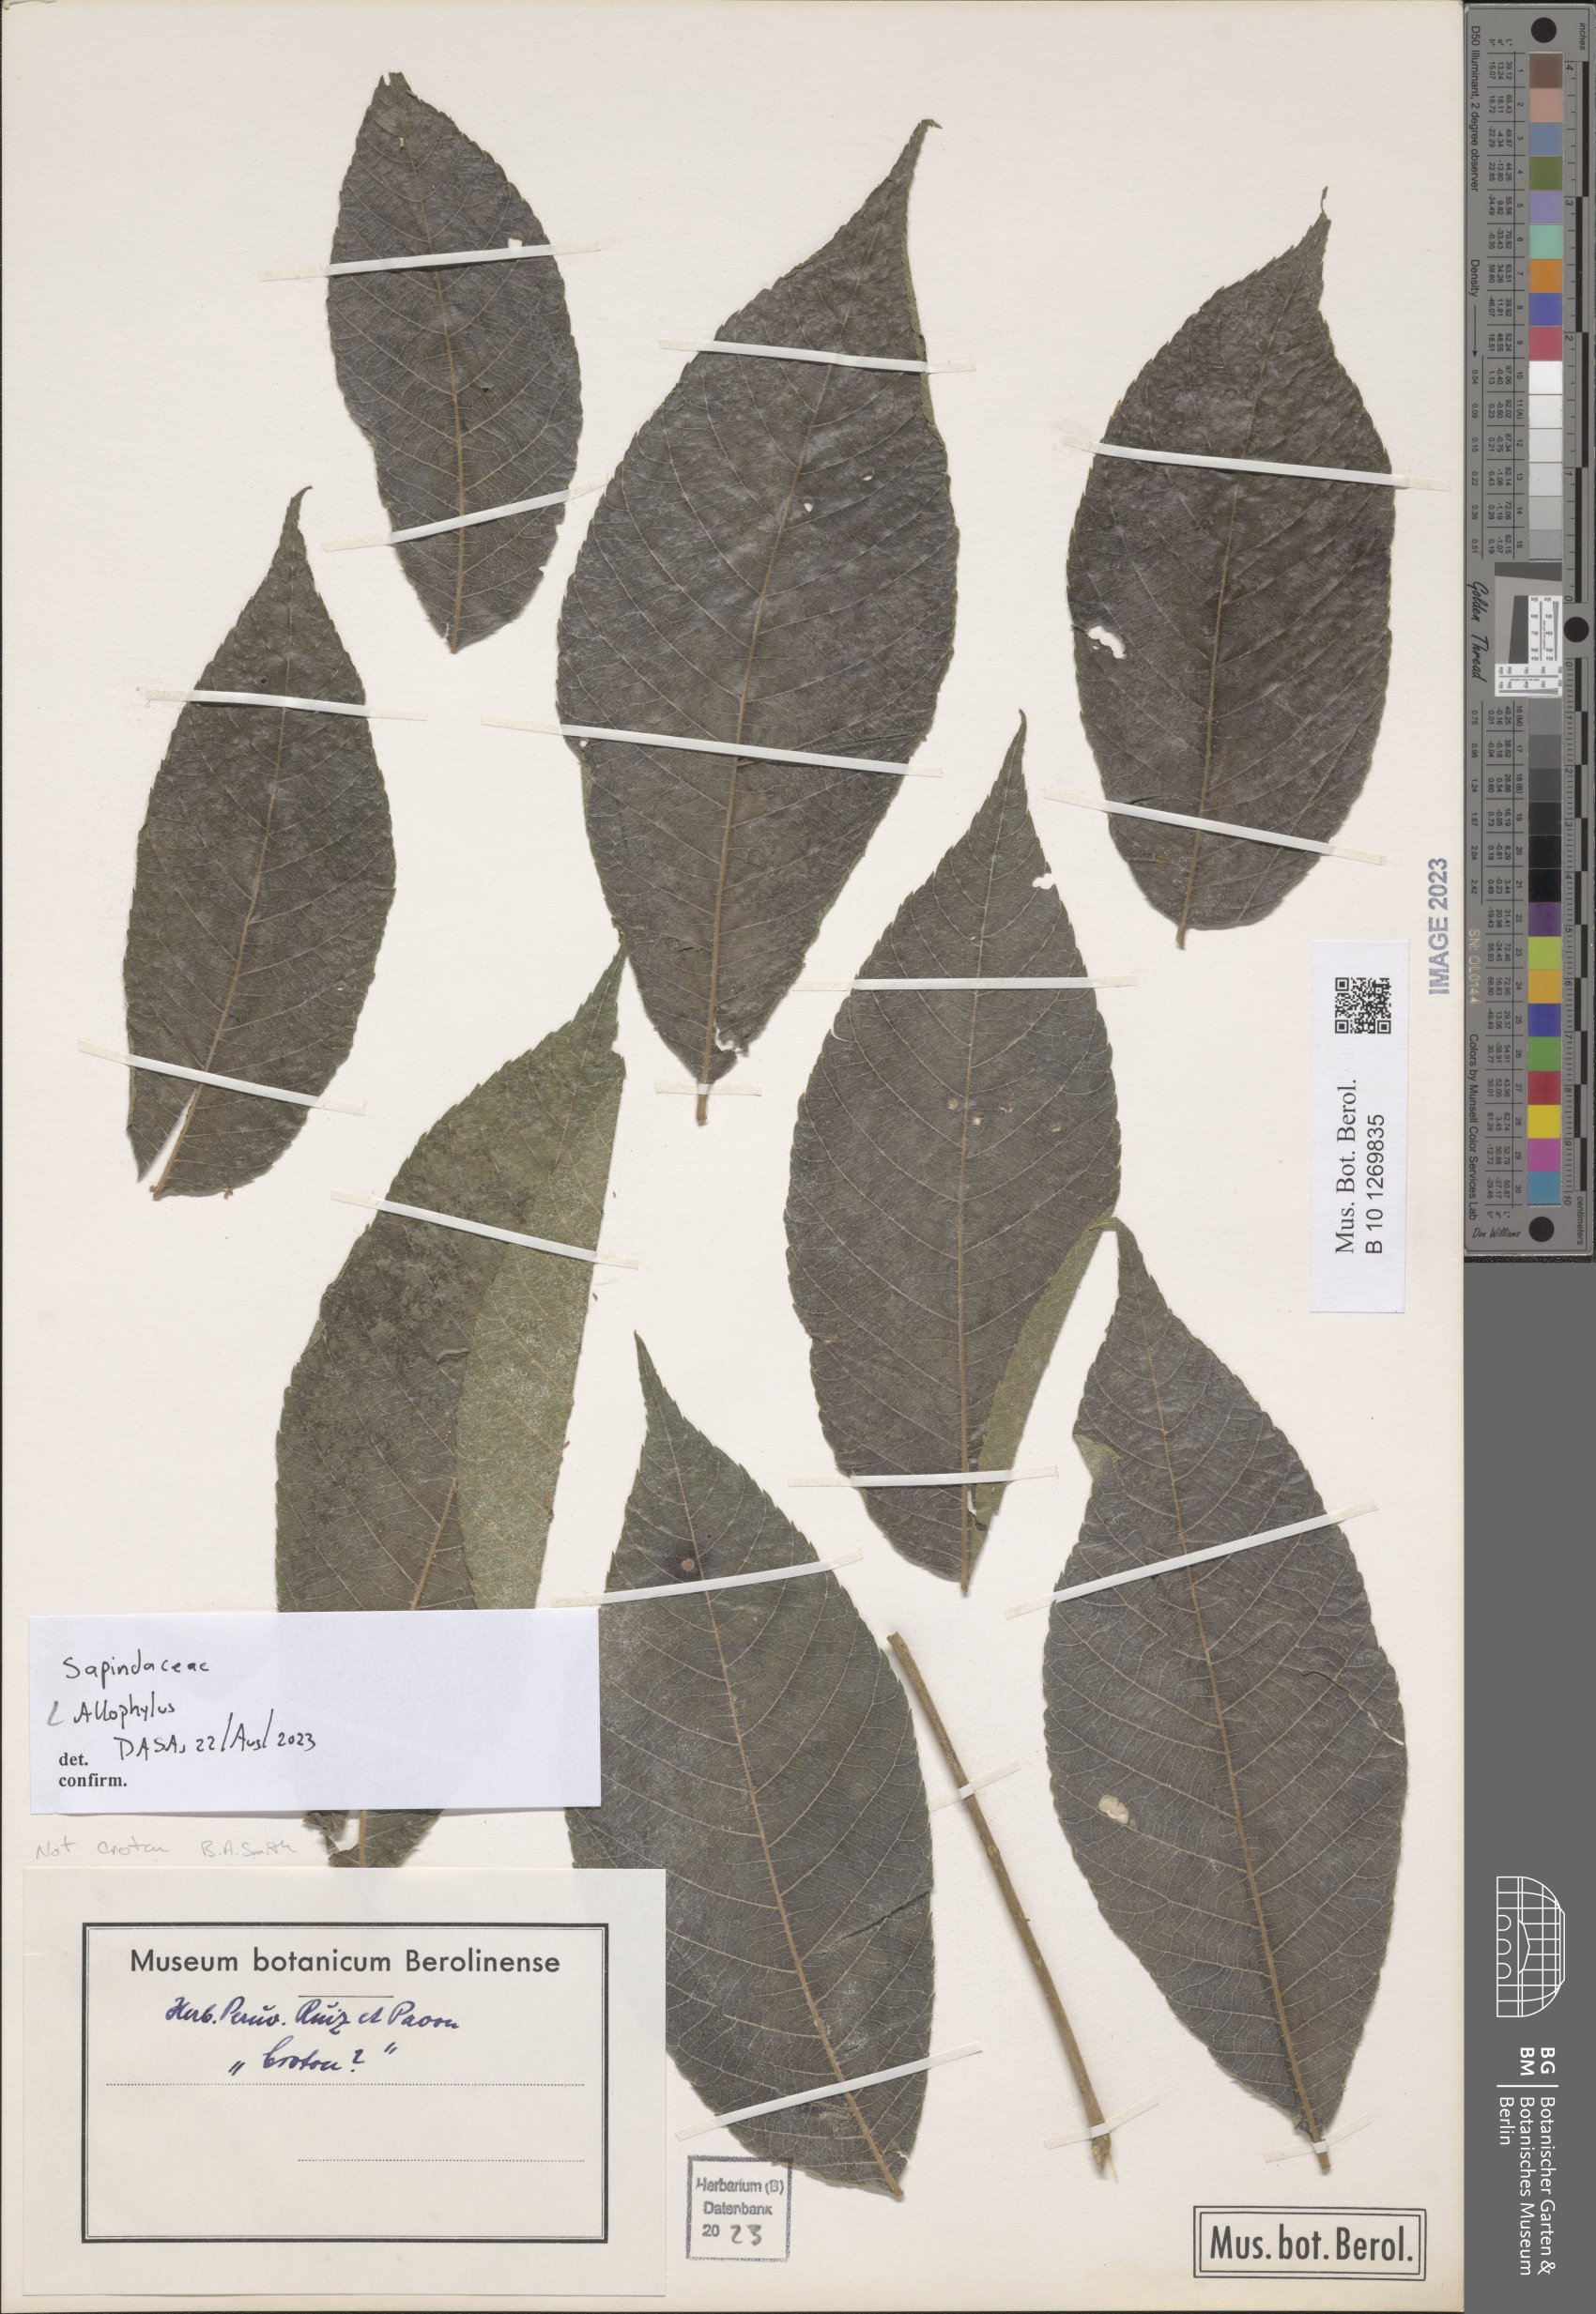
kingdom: Plantae
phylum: Tracheophyta
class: Magnoliopsida
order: Sapindales
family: Sapindaceae
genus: Allophyllus
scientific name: Allophyllus
